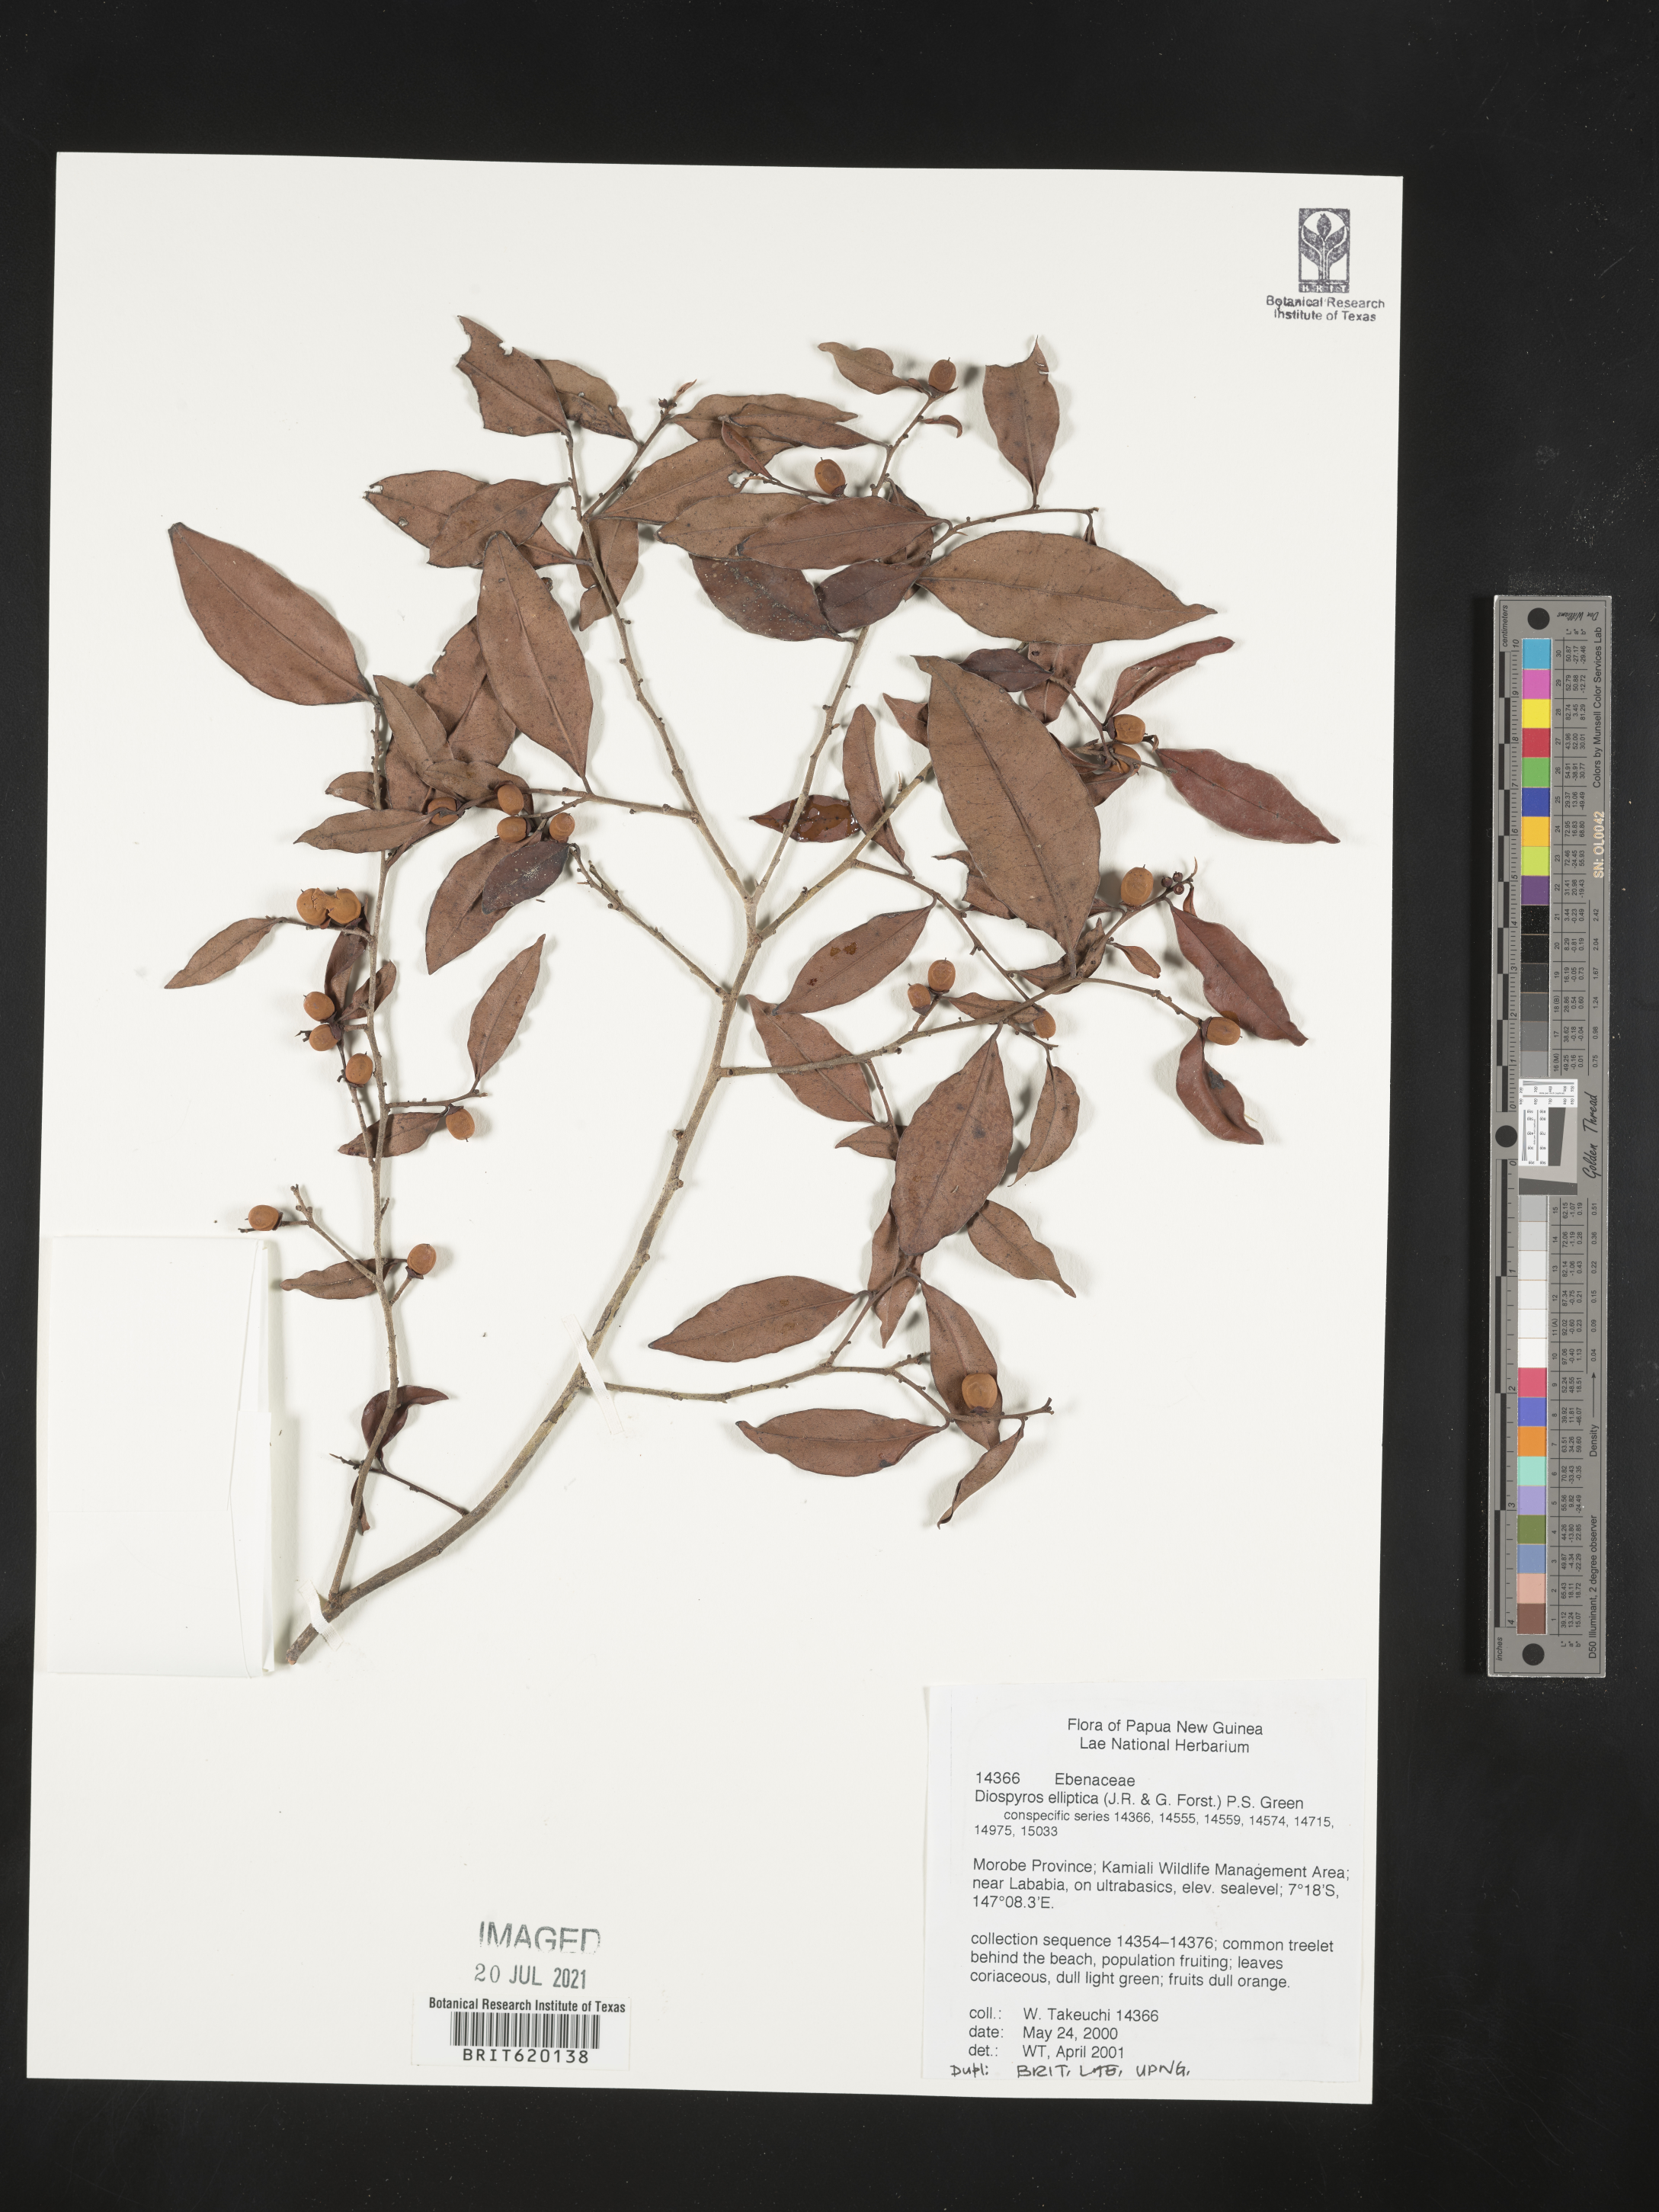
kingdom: Plantae
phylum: Tracheophyta
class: Magnoliopsida
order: Ericales
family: Ebenaceae
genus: Diospyros
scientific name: Diospyros elliptica
